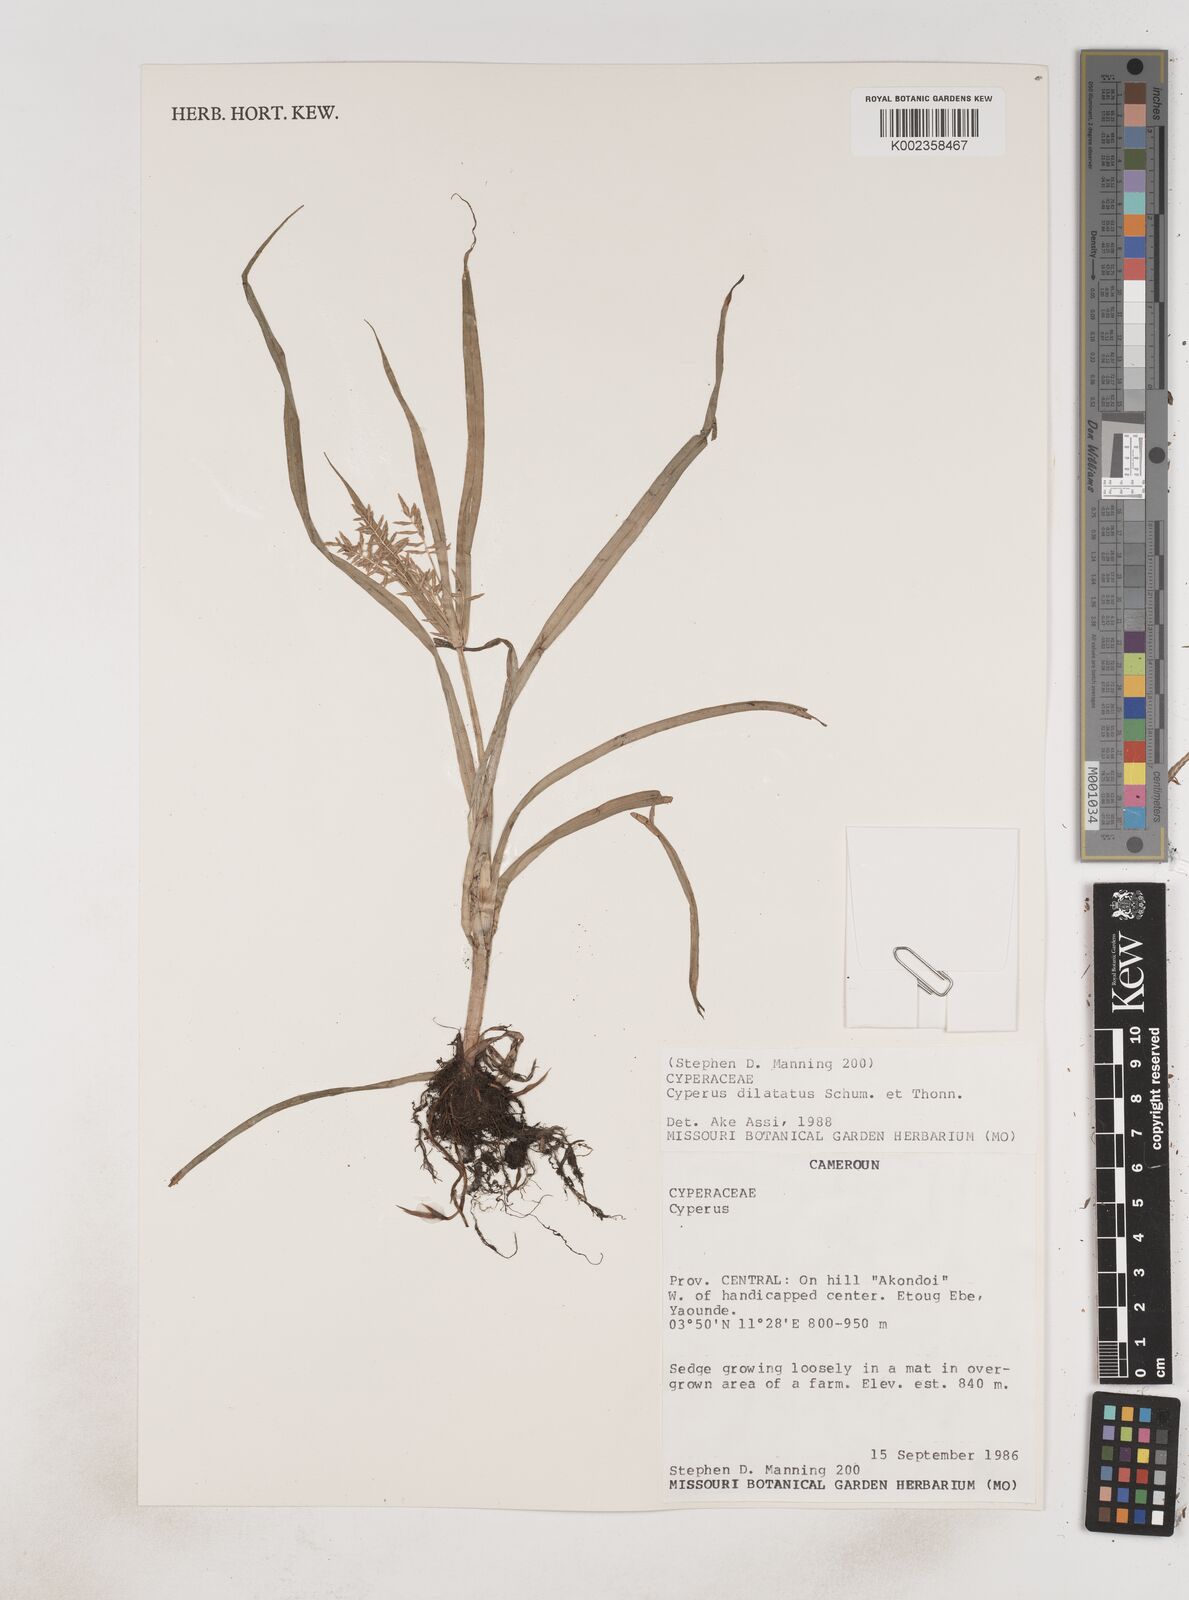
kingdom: Plantae
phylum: Tracheophyta
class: Liliopsida
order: Poales
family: Cyperaceae
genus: Cyperus
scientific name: Cyperus dilatatus
